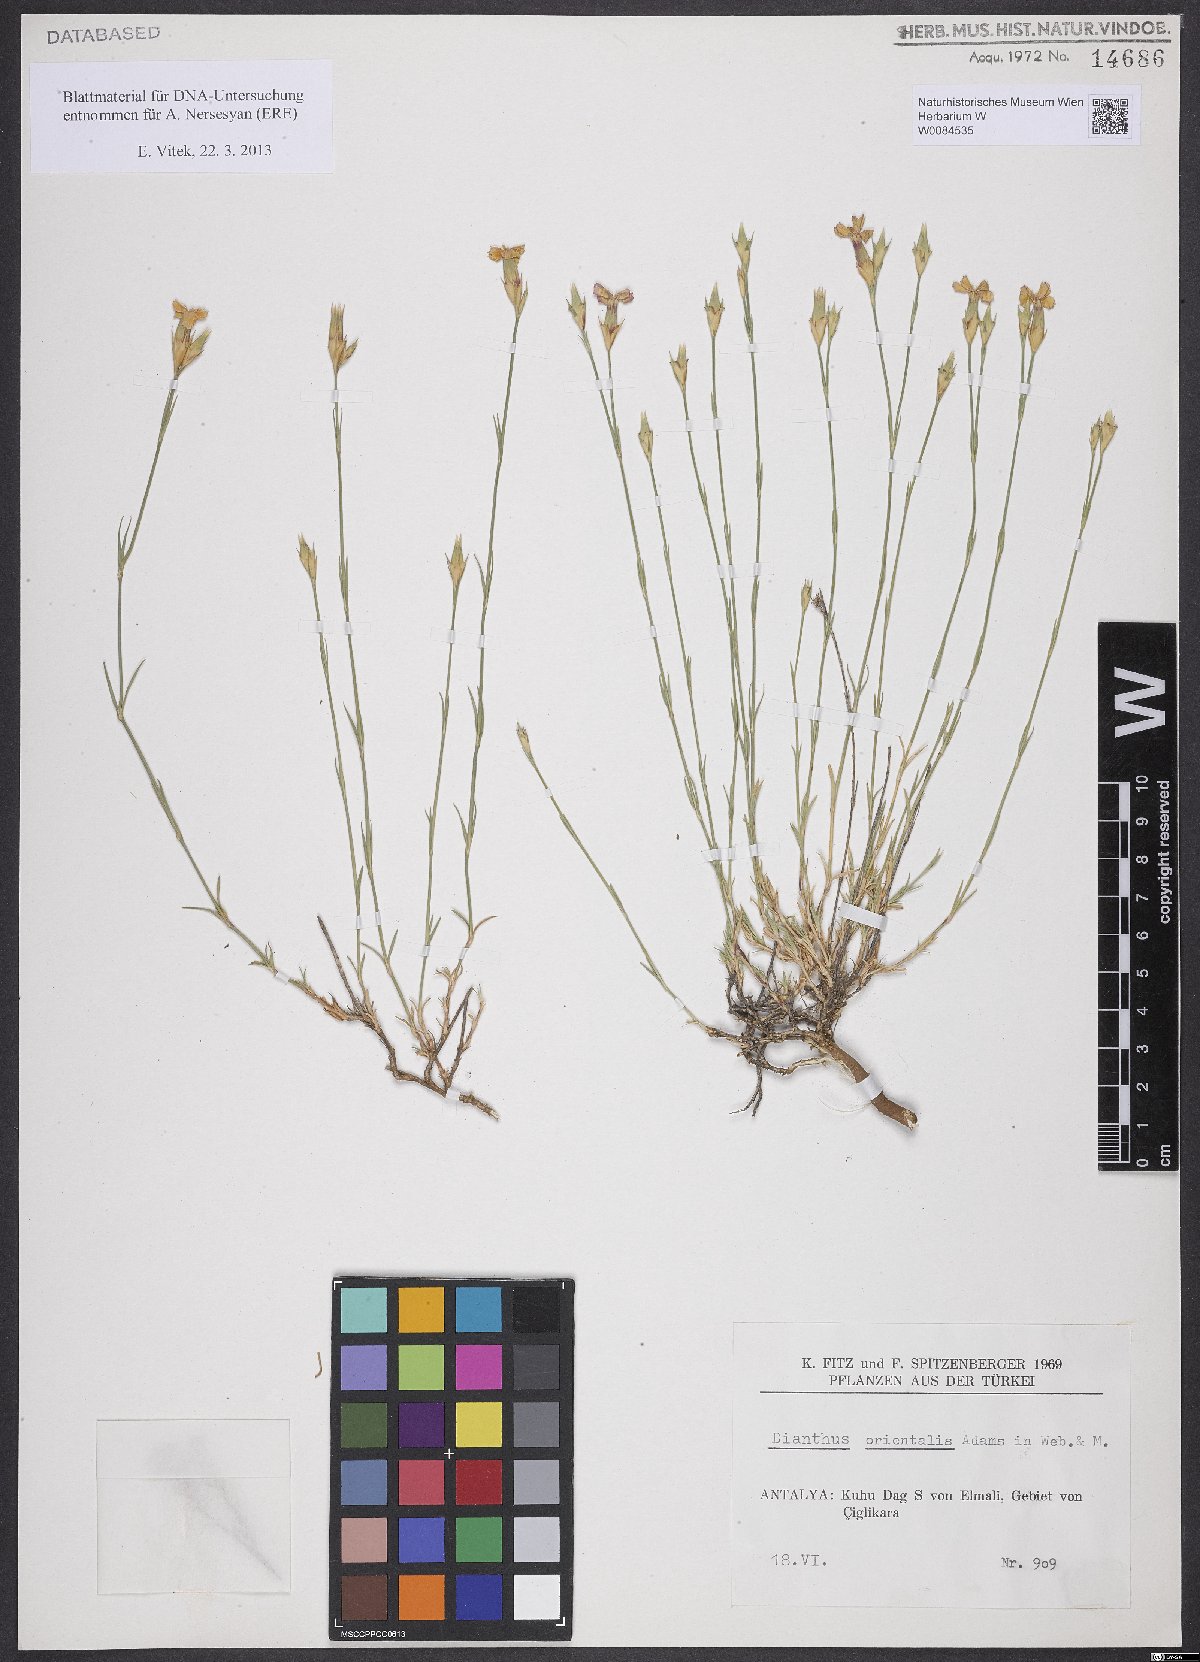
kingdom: Plantae
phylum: Tracheophyta
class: Magnoliopsida
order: Caryophyllales
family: Caryophyllaceae
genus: Dianthus
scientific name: Dianthus orientalis
